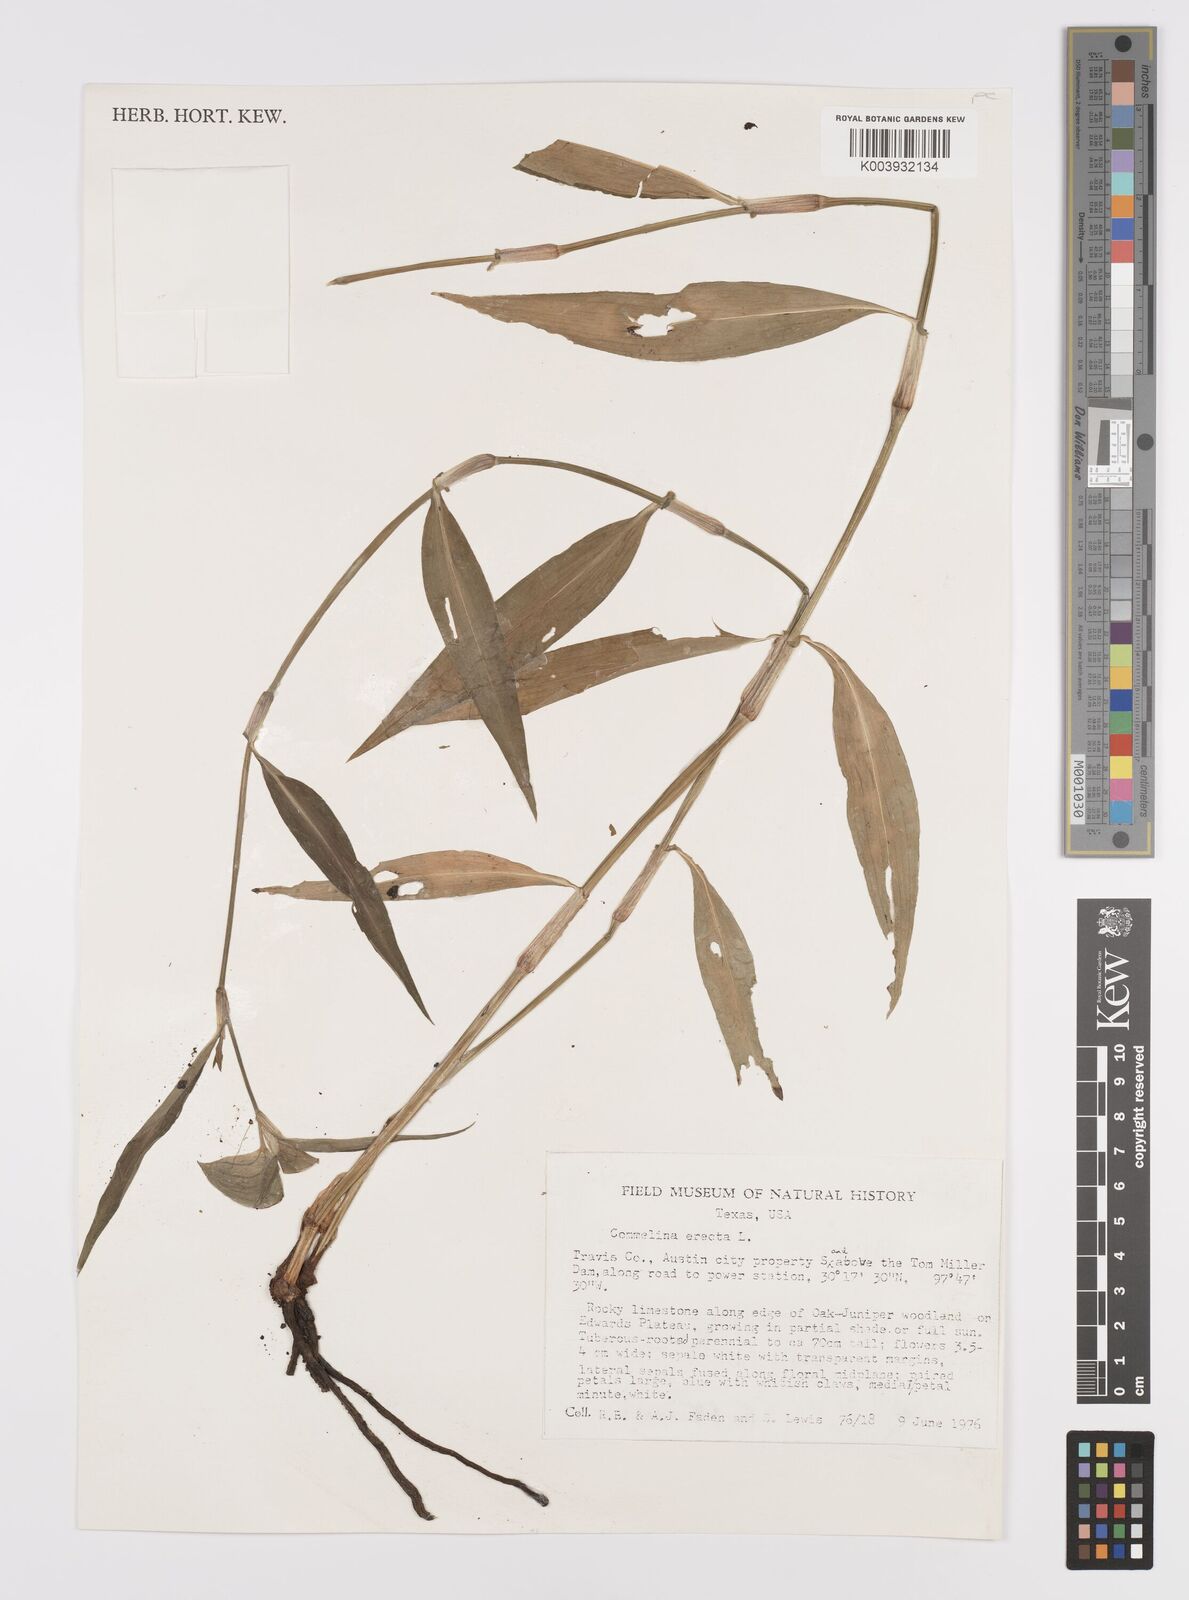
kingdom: Plantae
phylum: Tracheophyta
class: Liliopsida
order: Commelinales
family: Commelinaceae
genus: Commelina
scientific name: Commelina erecta
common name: Blousel blommetjie
